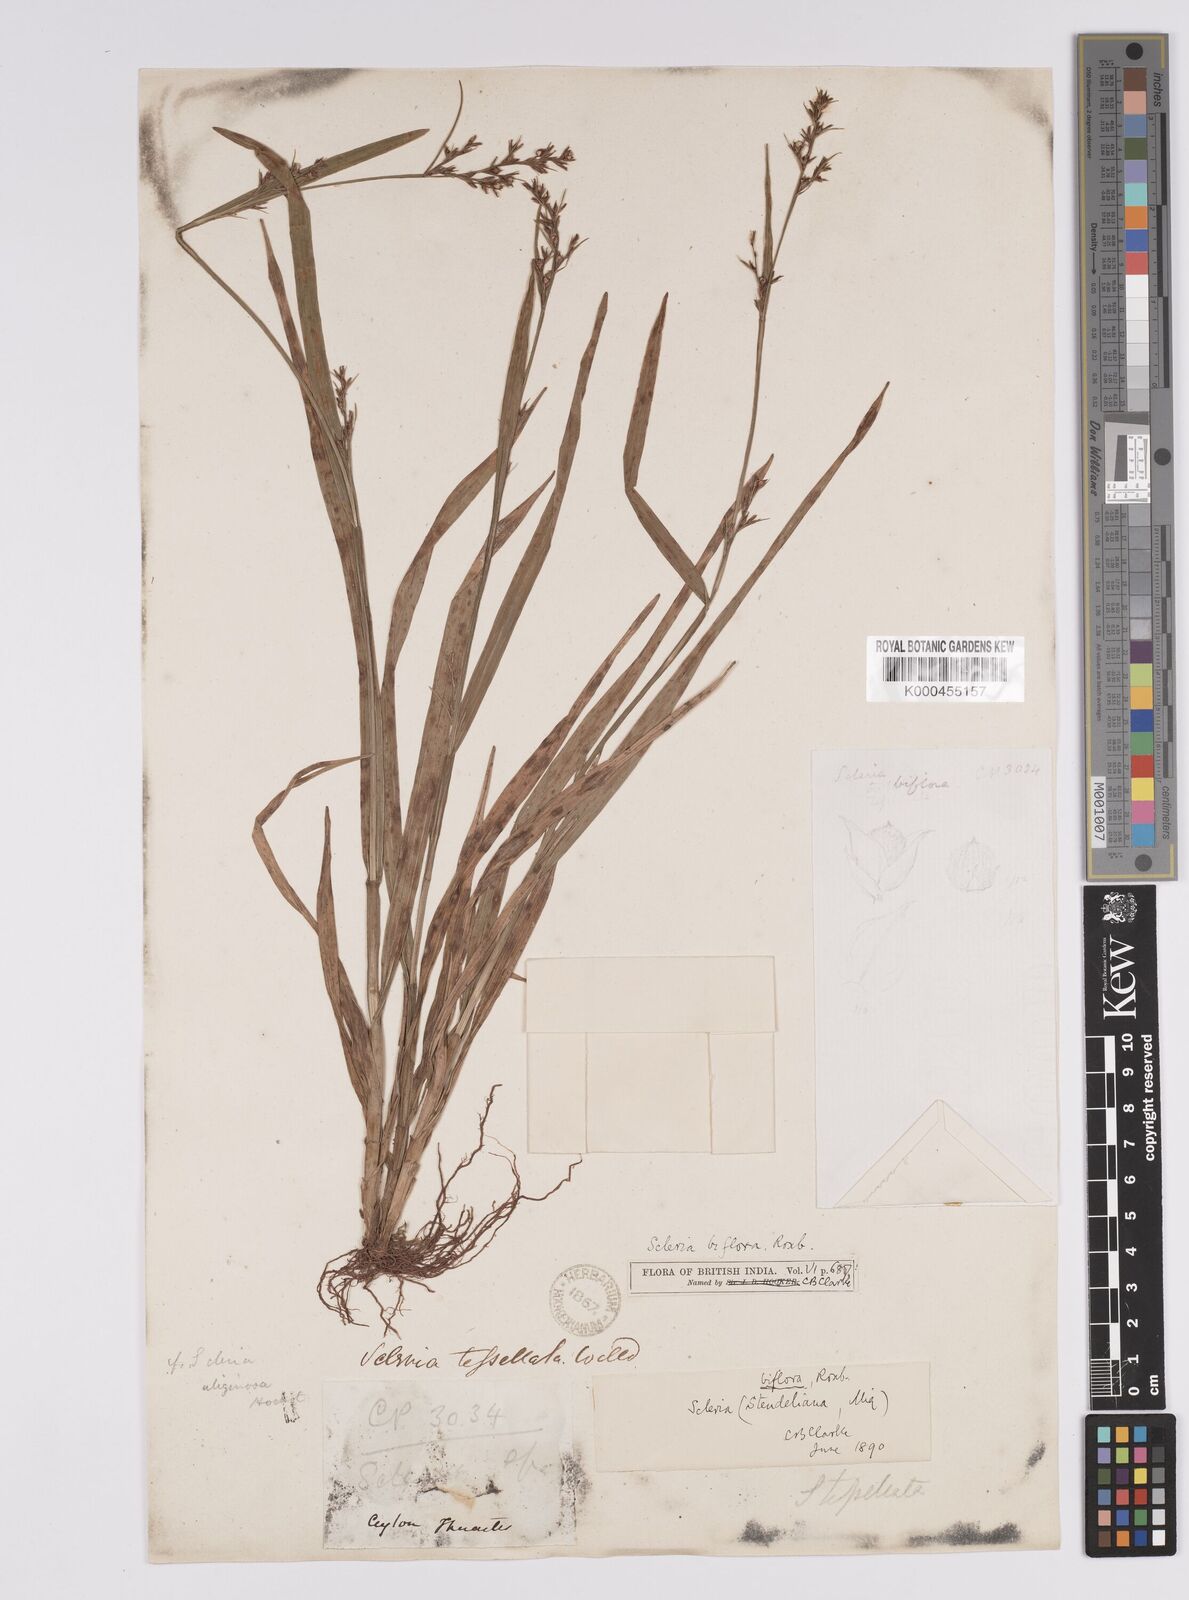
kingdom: Plantae
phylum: Tracheophyta
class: Liliopsida
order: Poales
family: Cyperaceae
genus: Scleria
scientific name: Scleria biflora
